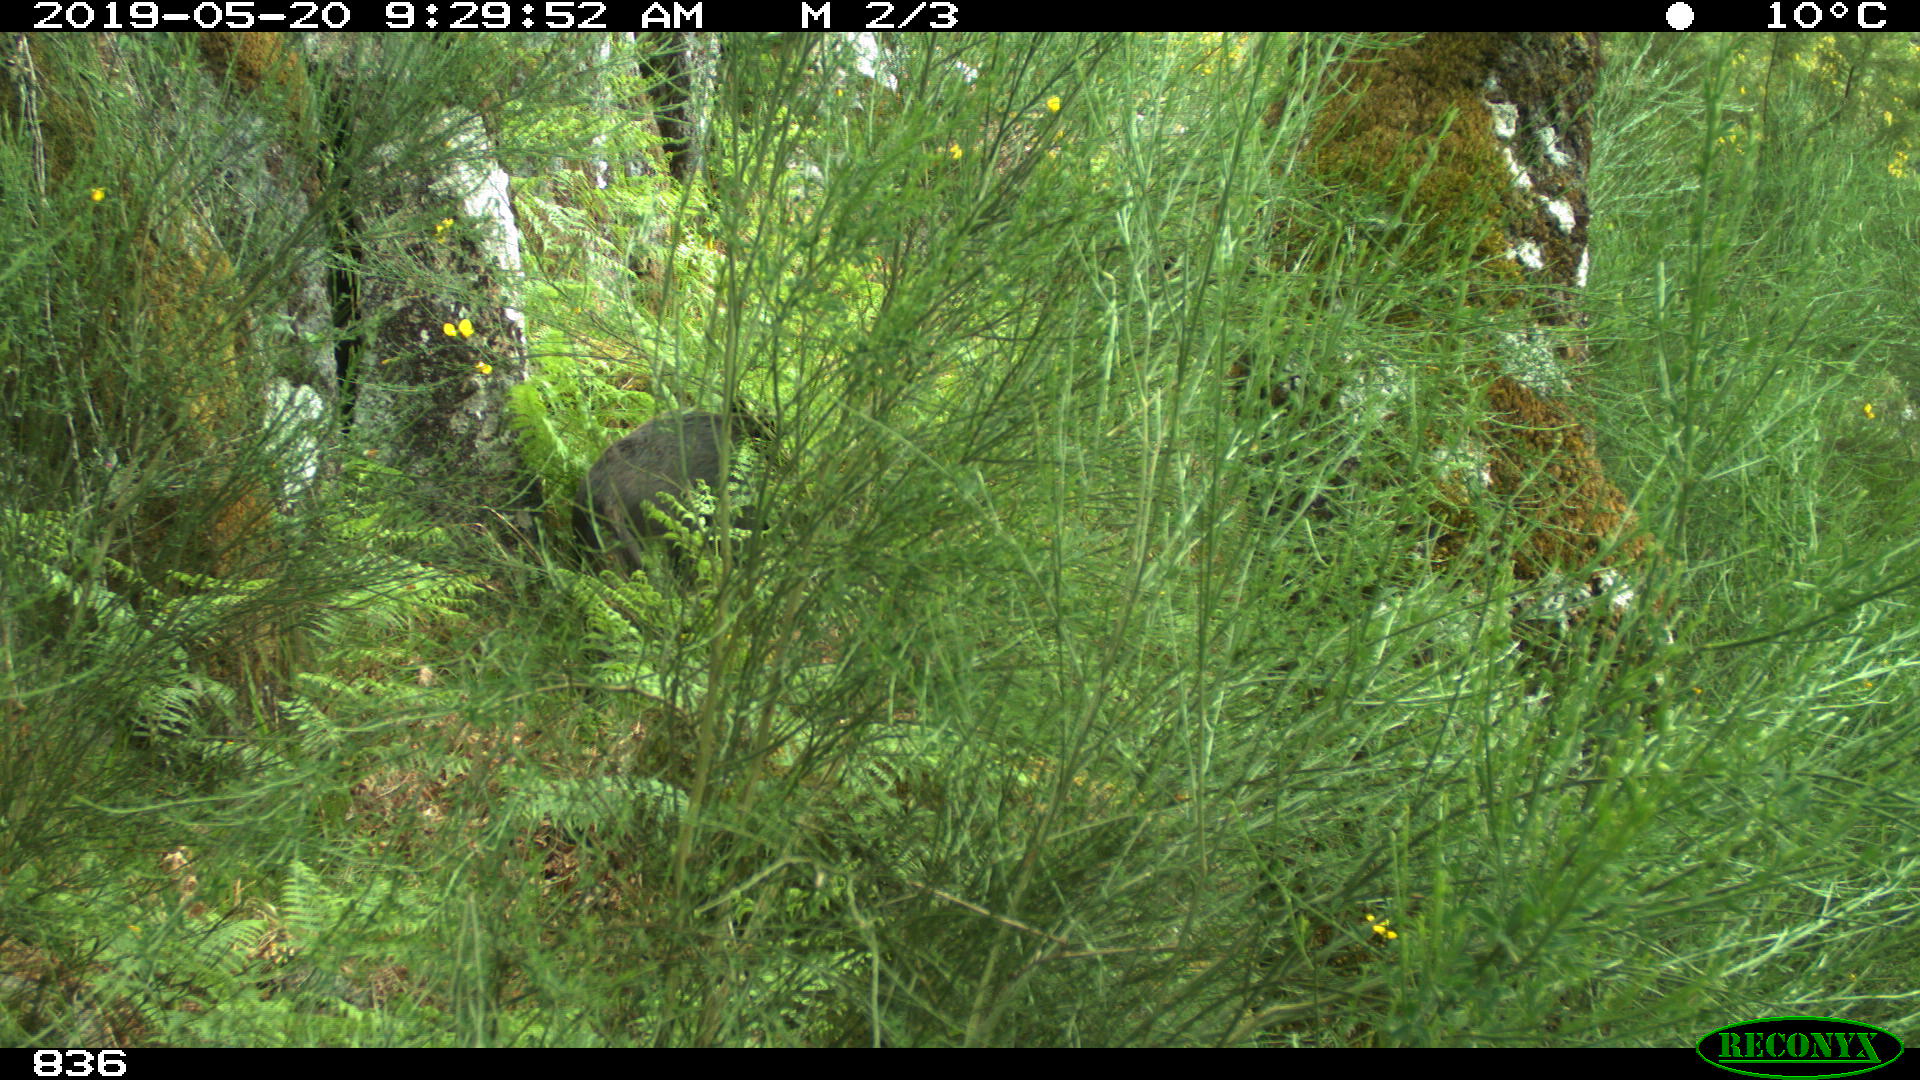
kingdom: Animalia
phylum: Chordata
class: Mammalia
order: Artiodactyla
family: Suidae
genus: Sus
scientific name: Sus scrofa
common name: Wild boar
